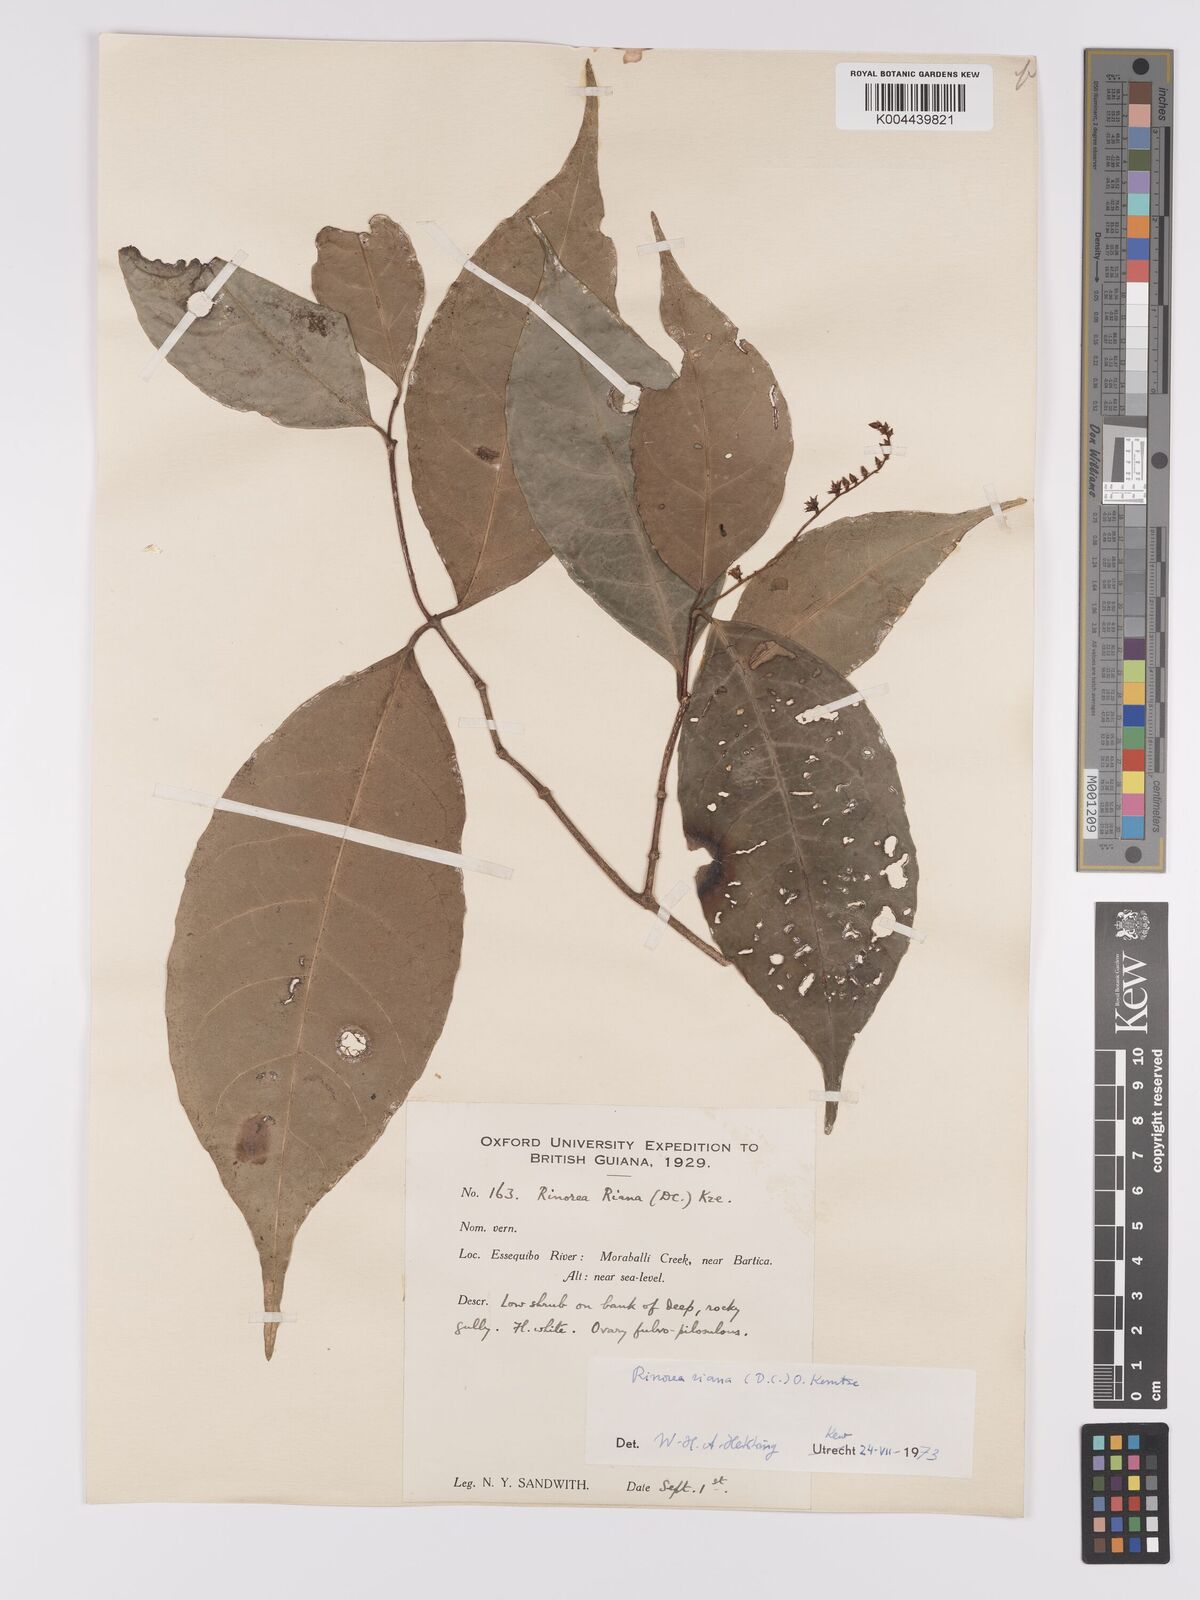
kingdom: Plantae
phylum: Tracheophyta
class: Magnoliopsida
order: Malpighiales
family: Violaceae
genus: Rinorea
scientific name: Rinorea riana
